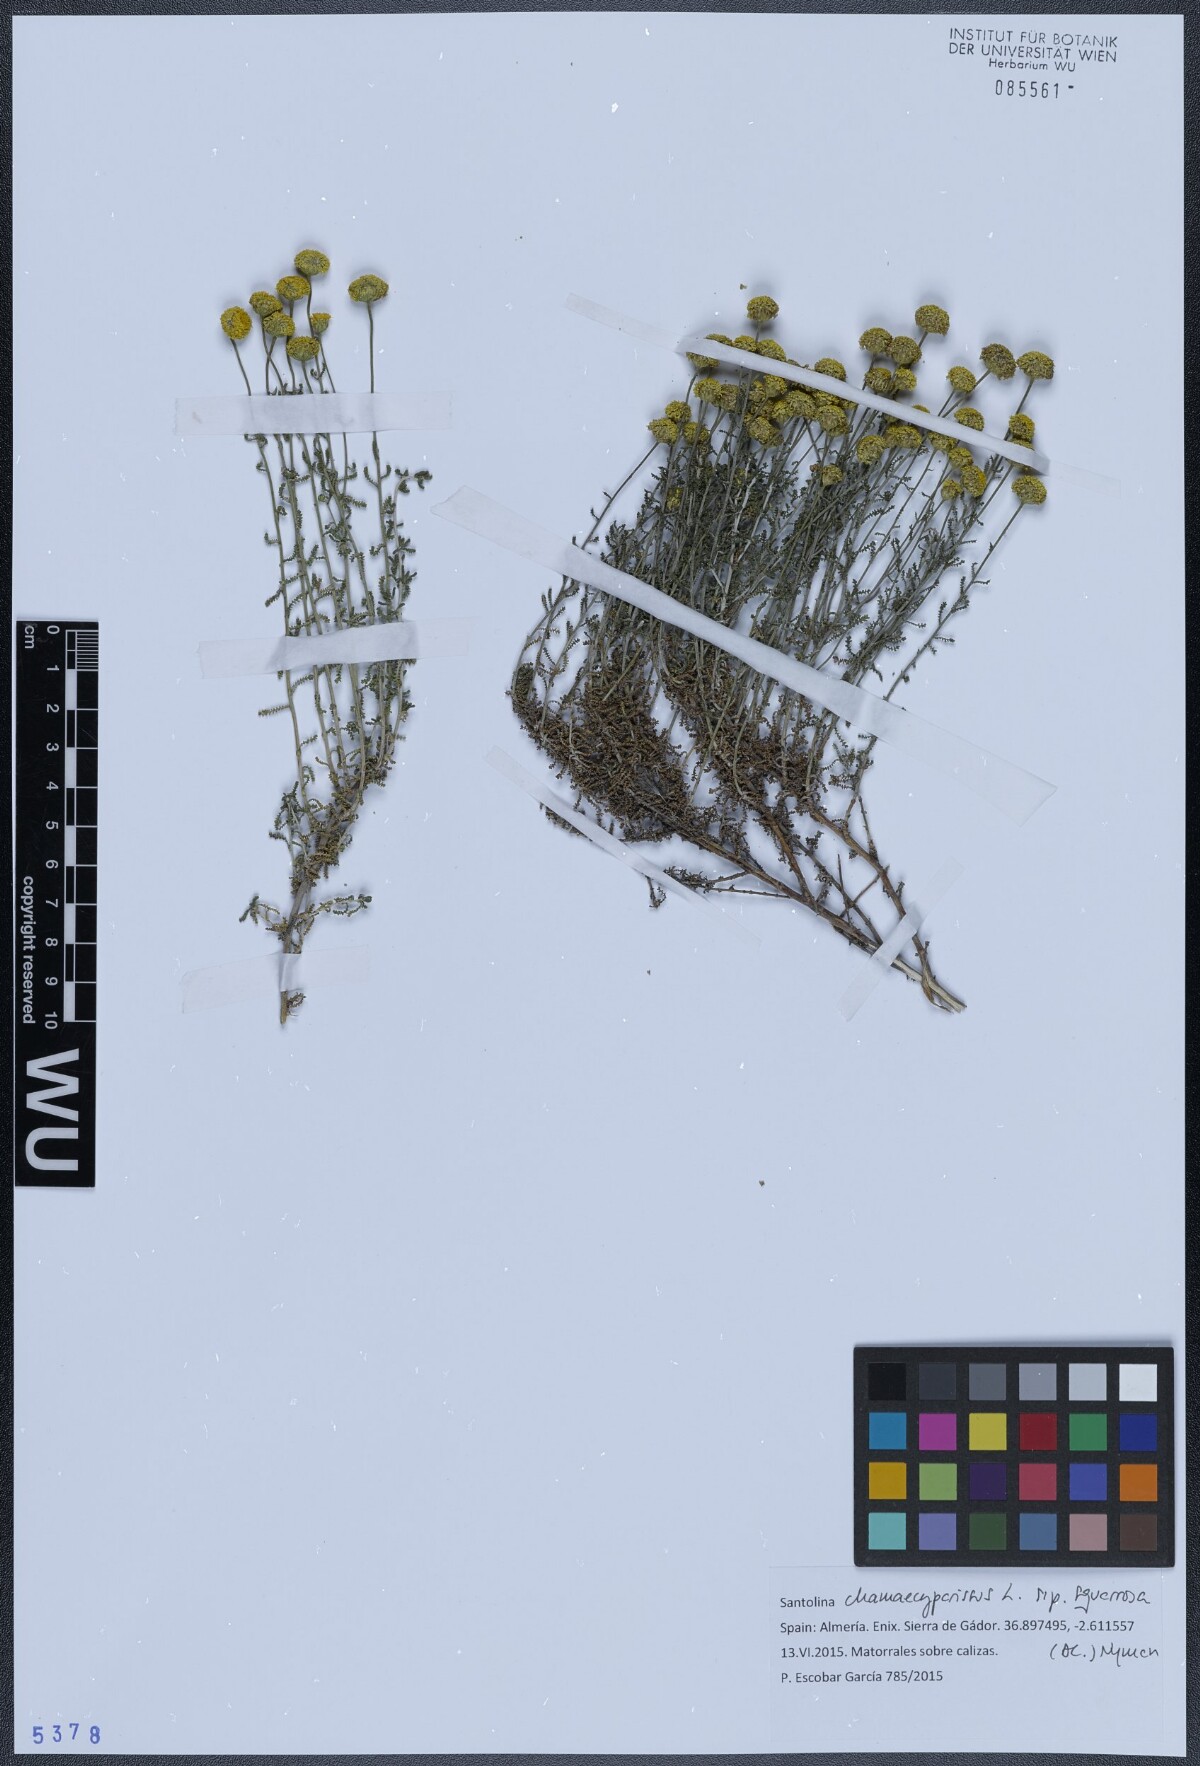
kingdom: Plantae
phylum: Tracheophyta
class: Magnoliopsida
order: Asterales
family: Asteraceae
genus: Santolina
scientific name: Santolina ericoides
